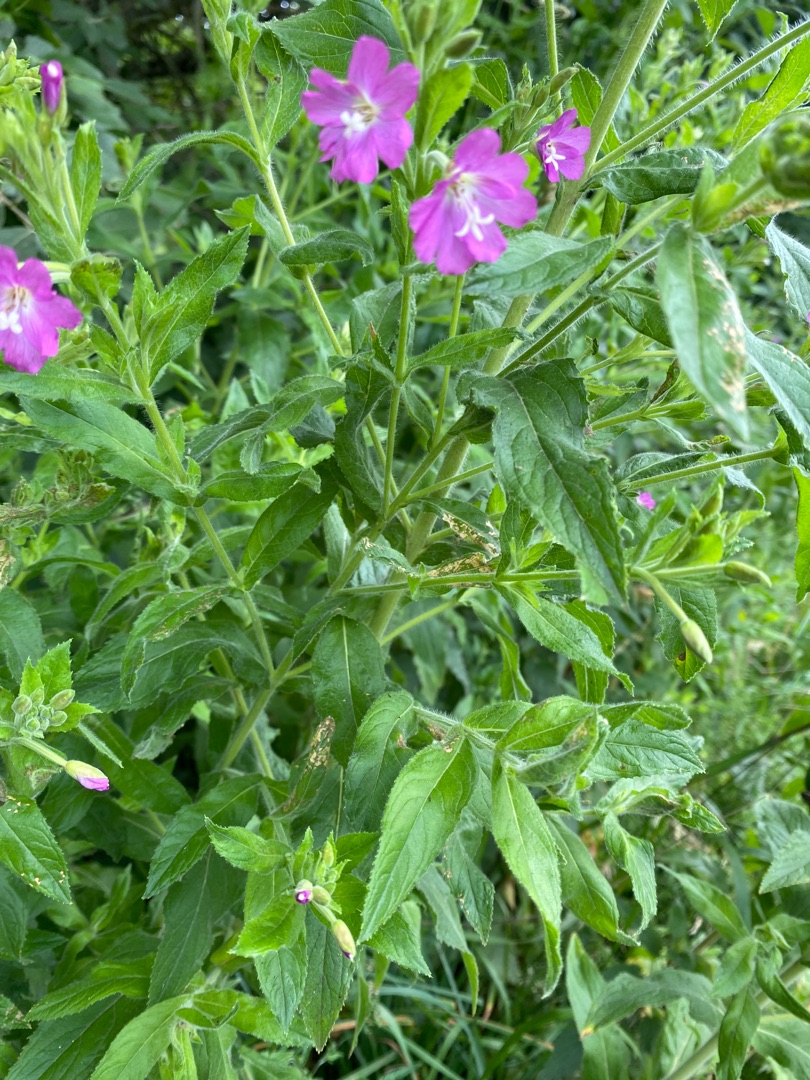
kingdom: Plantae
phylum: Tracheophyta
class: Magnoliopsida
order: Myrtales
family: Onagraceae
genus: Epilobium
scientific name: Epilobium hirsutum
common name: Lådden dueurt
